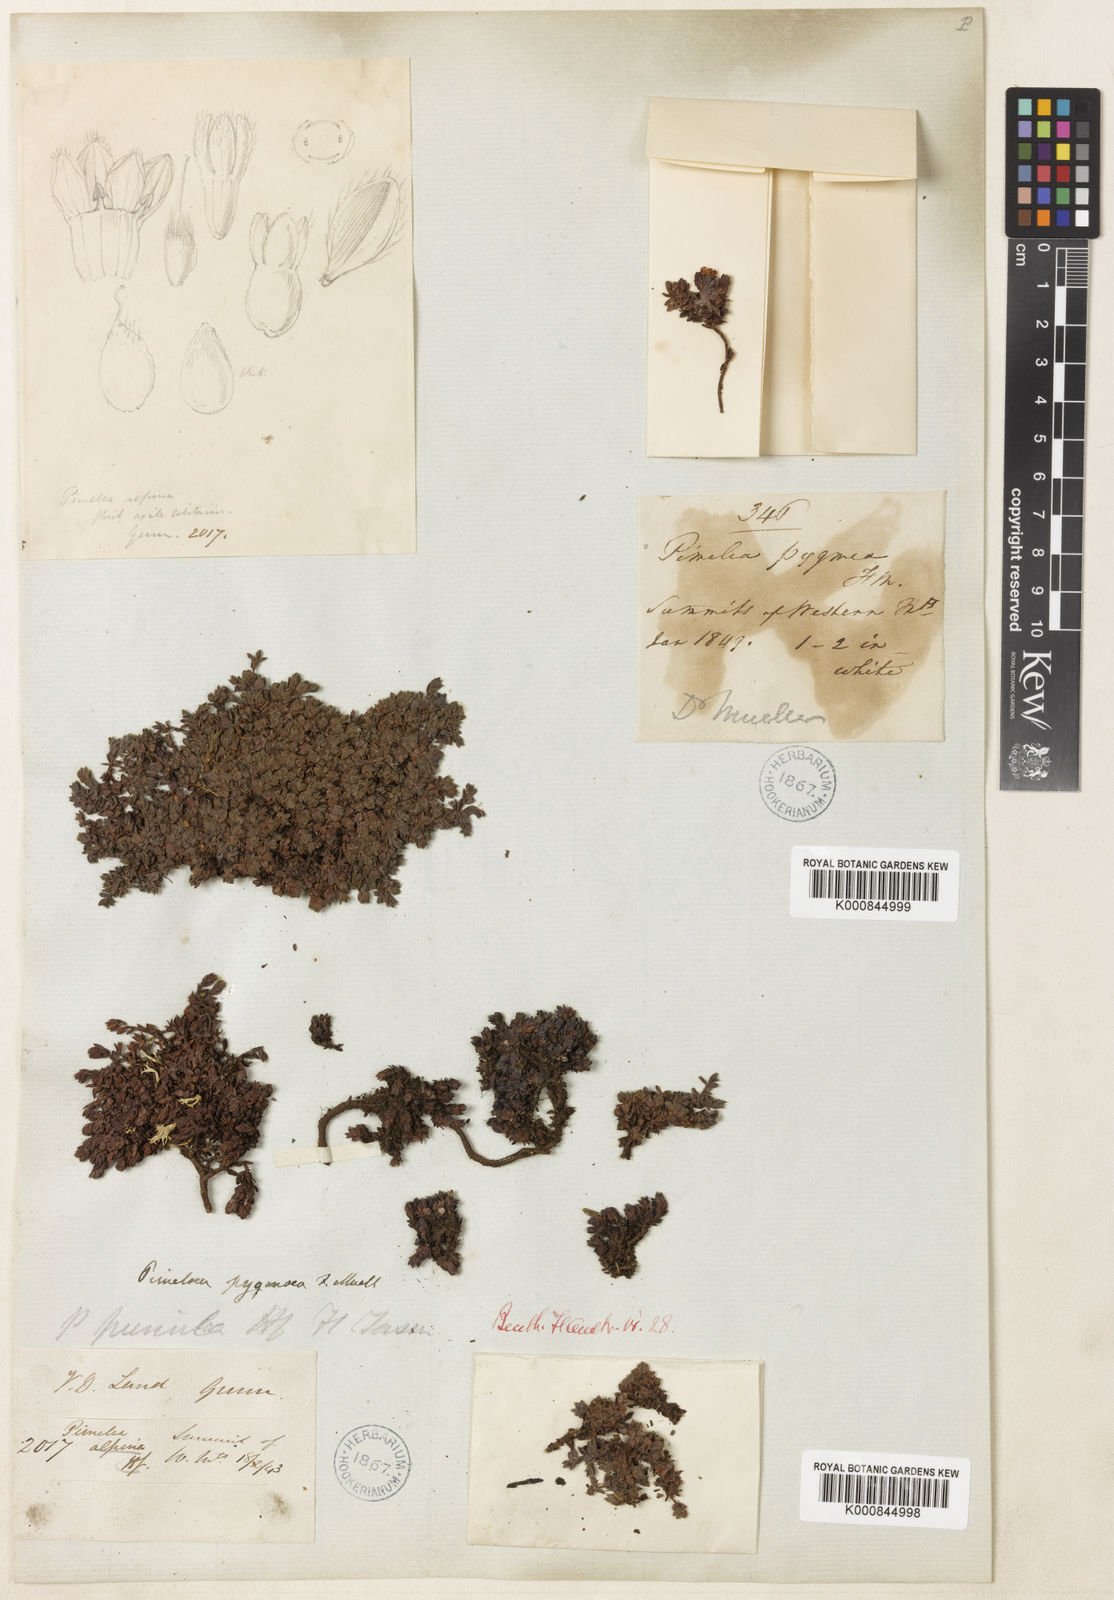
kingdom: Plantae
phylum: Tracheophyta
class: Magnoliopsida
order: Malvales
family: Thymelaeaceae
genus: Pimelea
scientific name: Pimelea pygmaea
